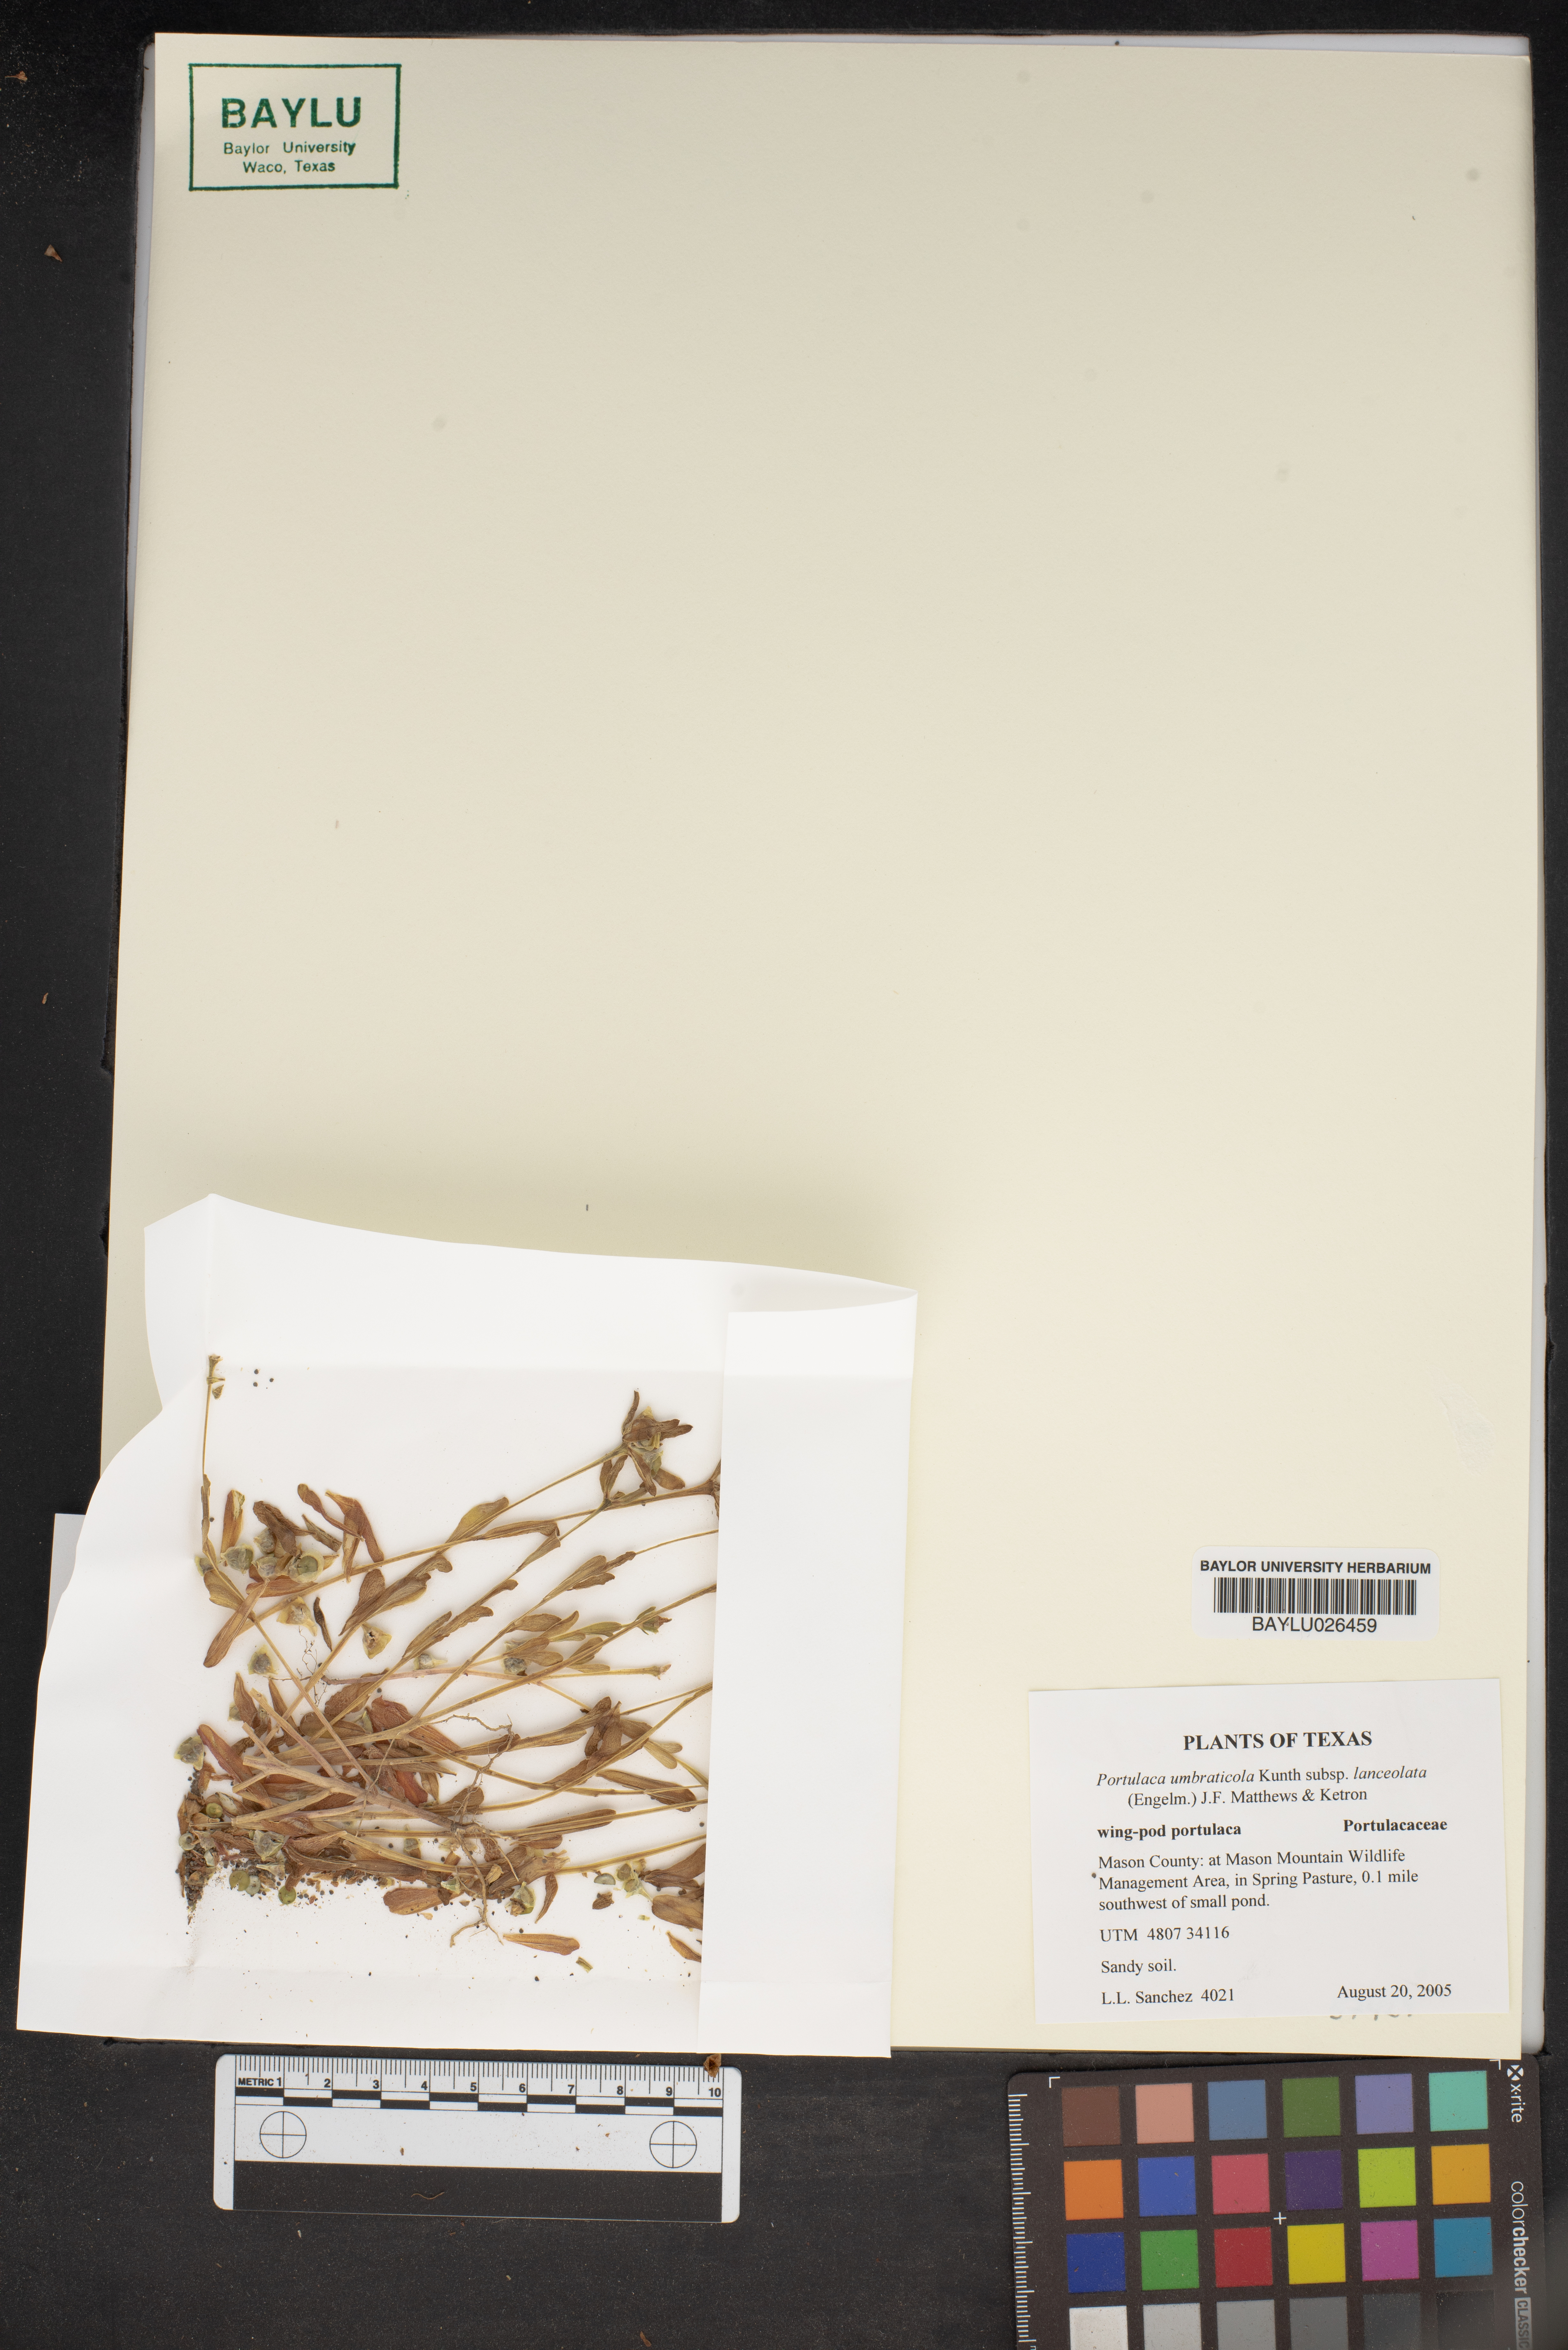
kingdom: Plantae
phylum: Tracheophyta
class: Magnoliopsida
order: Caryophyllales
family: Portulacaceae
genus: Portulaca
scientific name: Portulaca umbraticola
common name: Wingpod purslane
